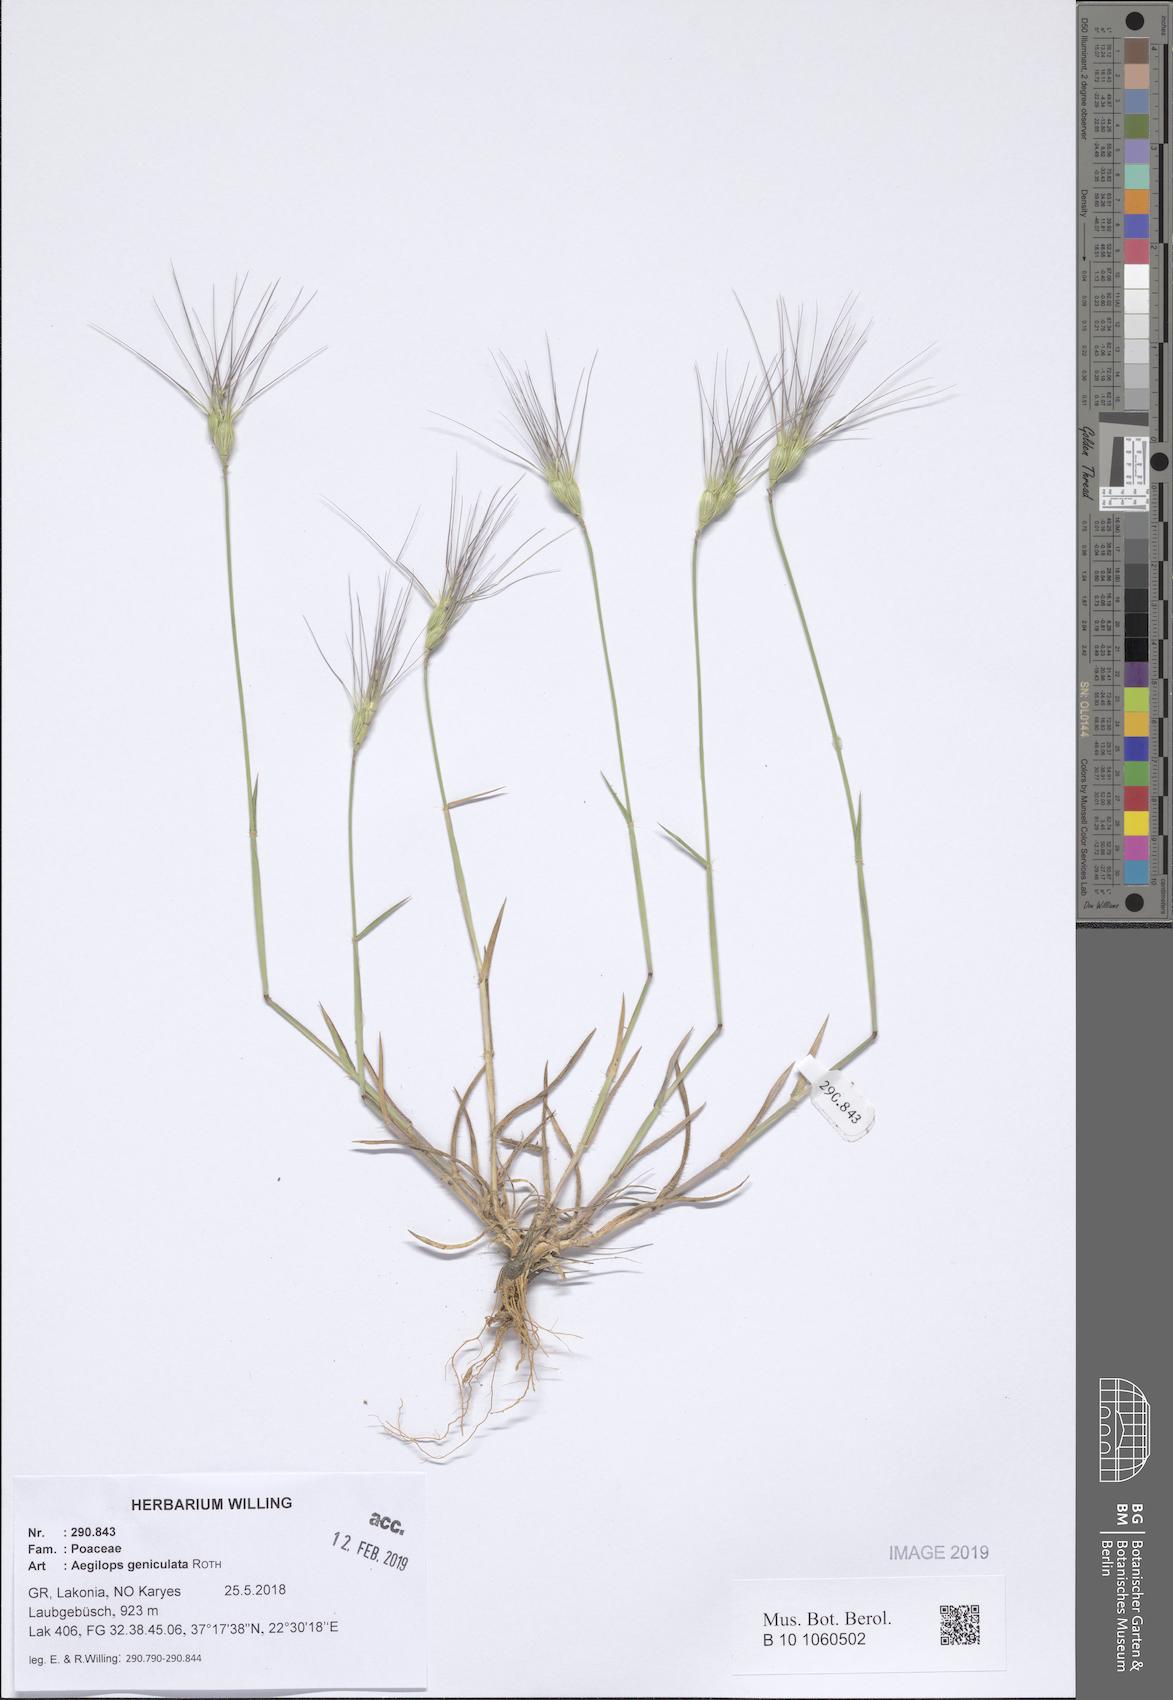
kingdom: Plantae
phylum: Tracheophyta
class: Liliopsida
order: Poales
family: Poaceae
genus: Aegilops
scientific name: Aegilops geniculata
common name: Ovate goat grass
